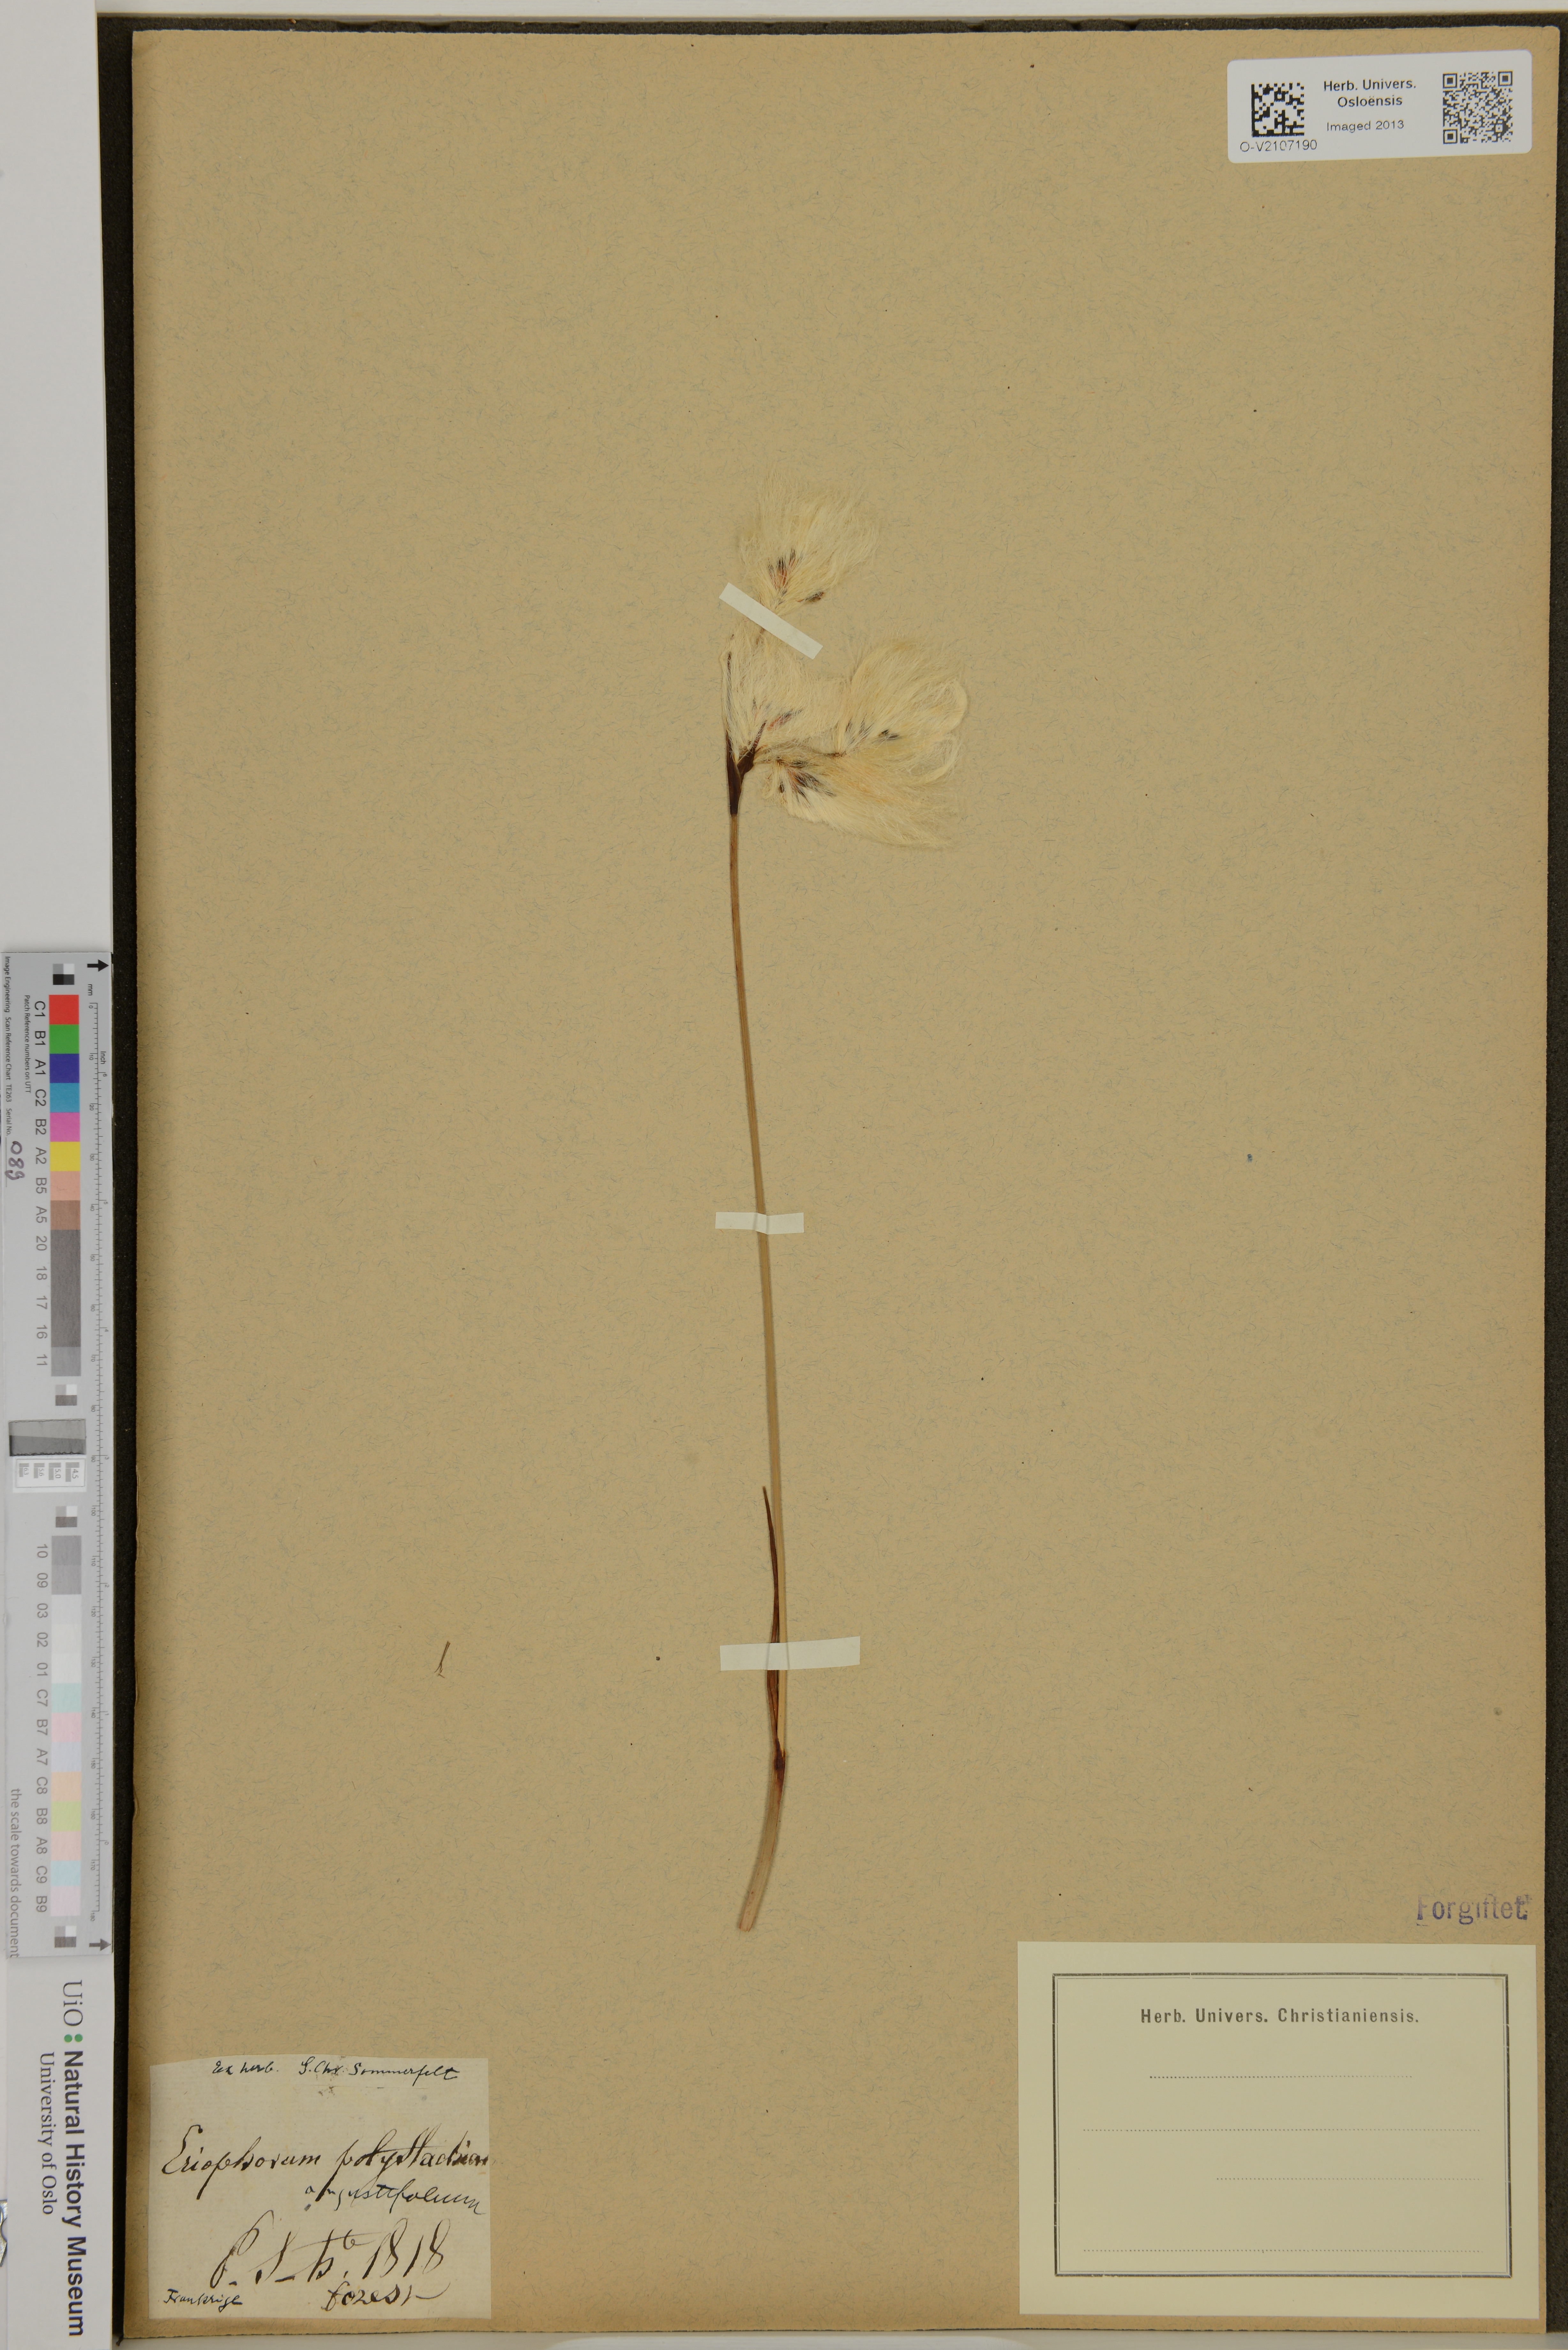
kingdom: Plantae
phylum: Tracheophyta
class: Liliopsida
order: Poales
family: Cyperaceae
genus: Eriophorum
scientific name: Eriophorum angustifolium
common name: Common cottongrass
